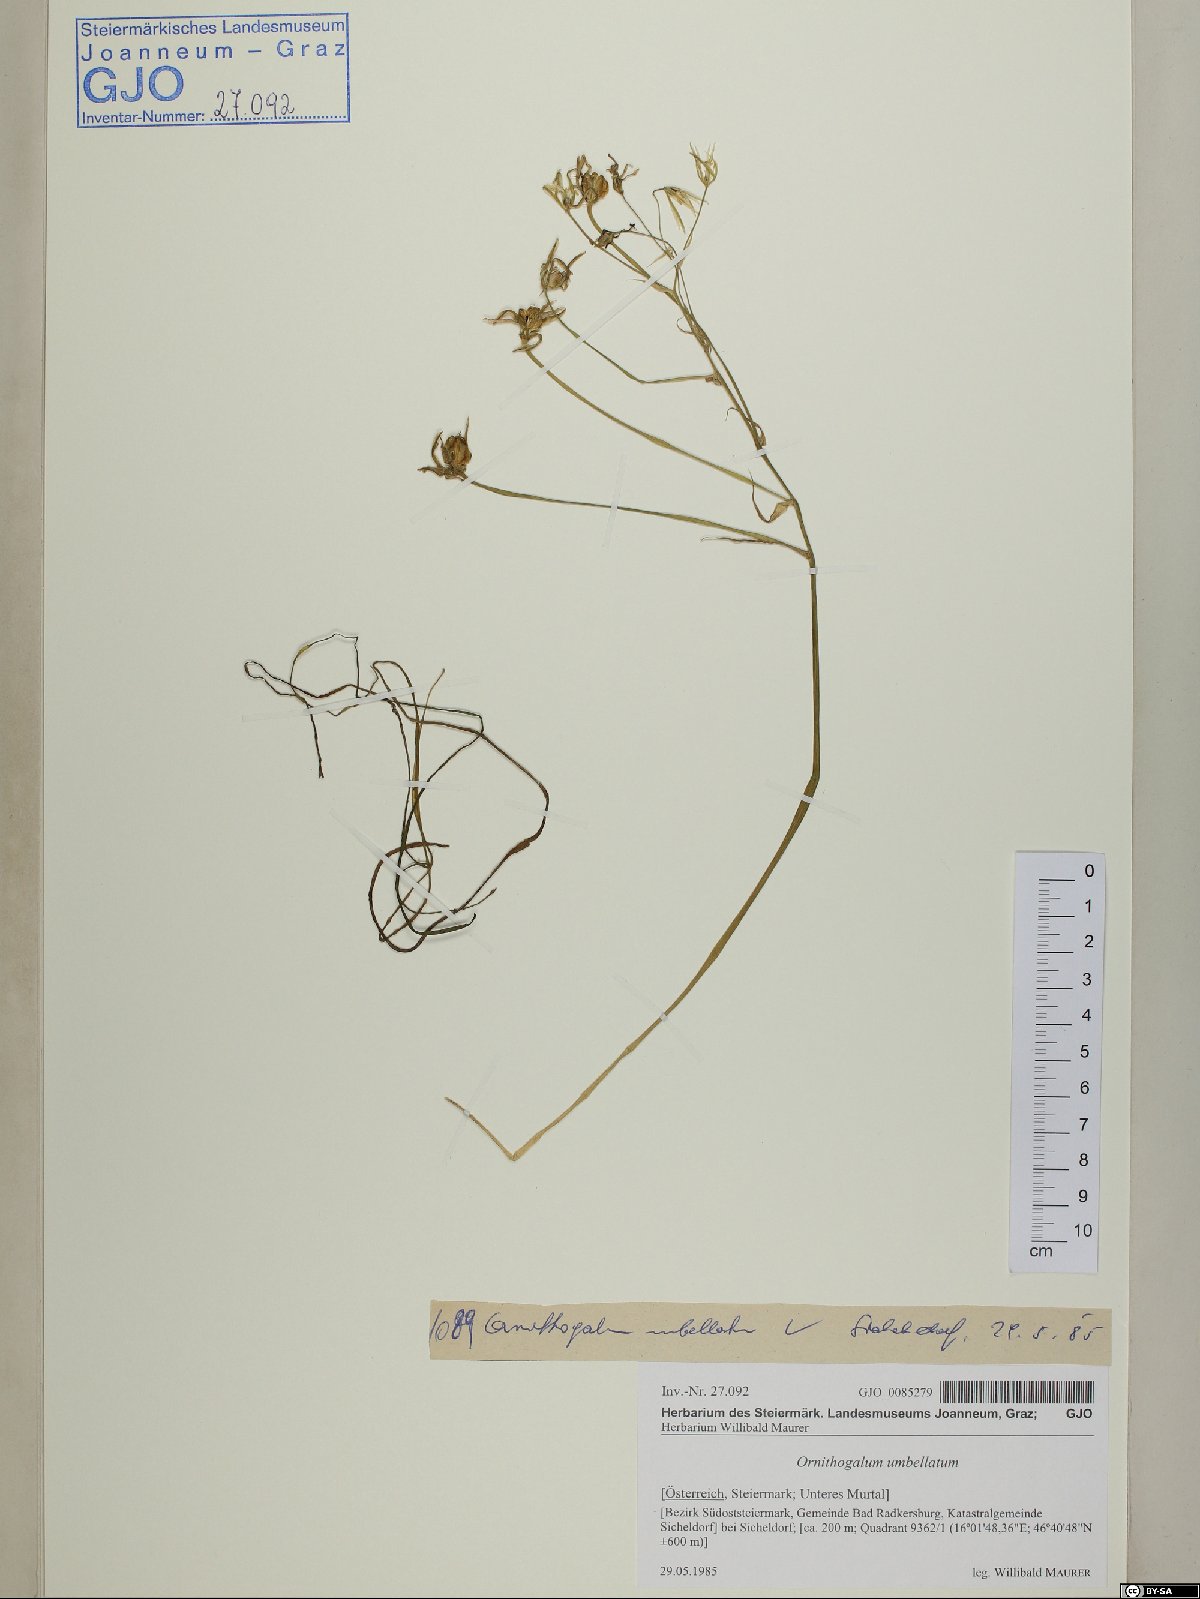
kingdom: Plantae
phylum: Tracheophyta
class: Liliopsida
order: Asparagales
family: Asparagaceae
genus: Ornithogalum
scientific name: Ornithogalum umbellatum
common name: Garden star-of-bethlehem
